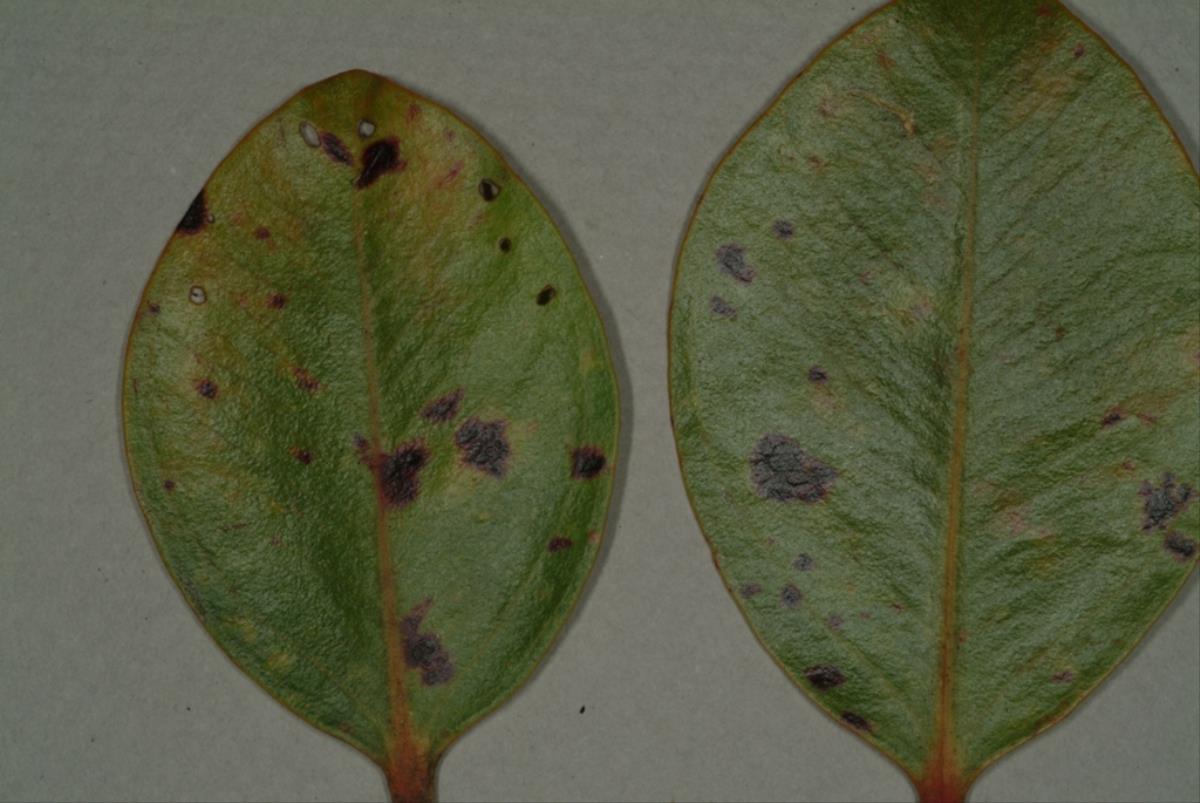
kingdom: Fungi
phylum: Ascomycota
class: Dothideomycetes
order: Mycosphaerellales
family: Mycosphaerellaceae
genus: Pseudocercospora
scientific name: Pseudocercospora metrosideri
